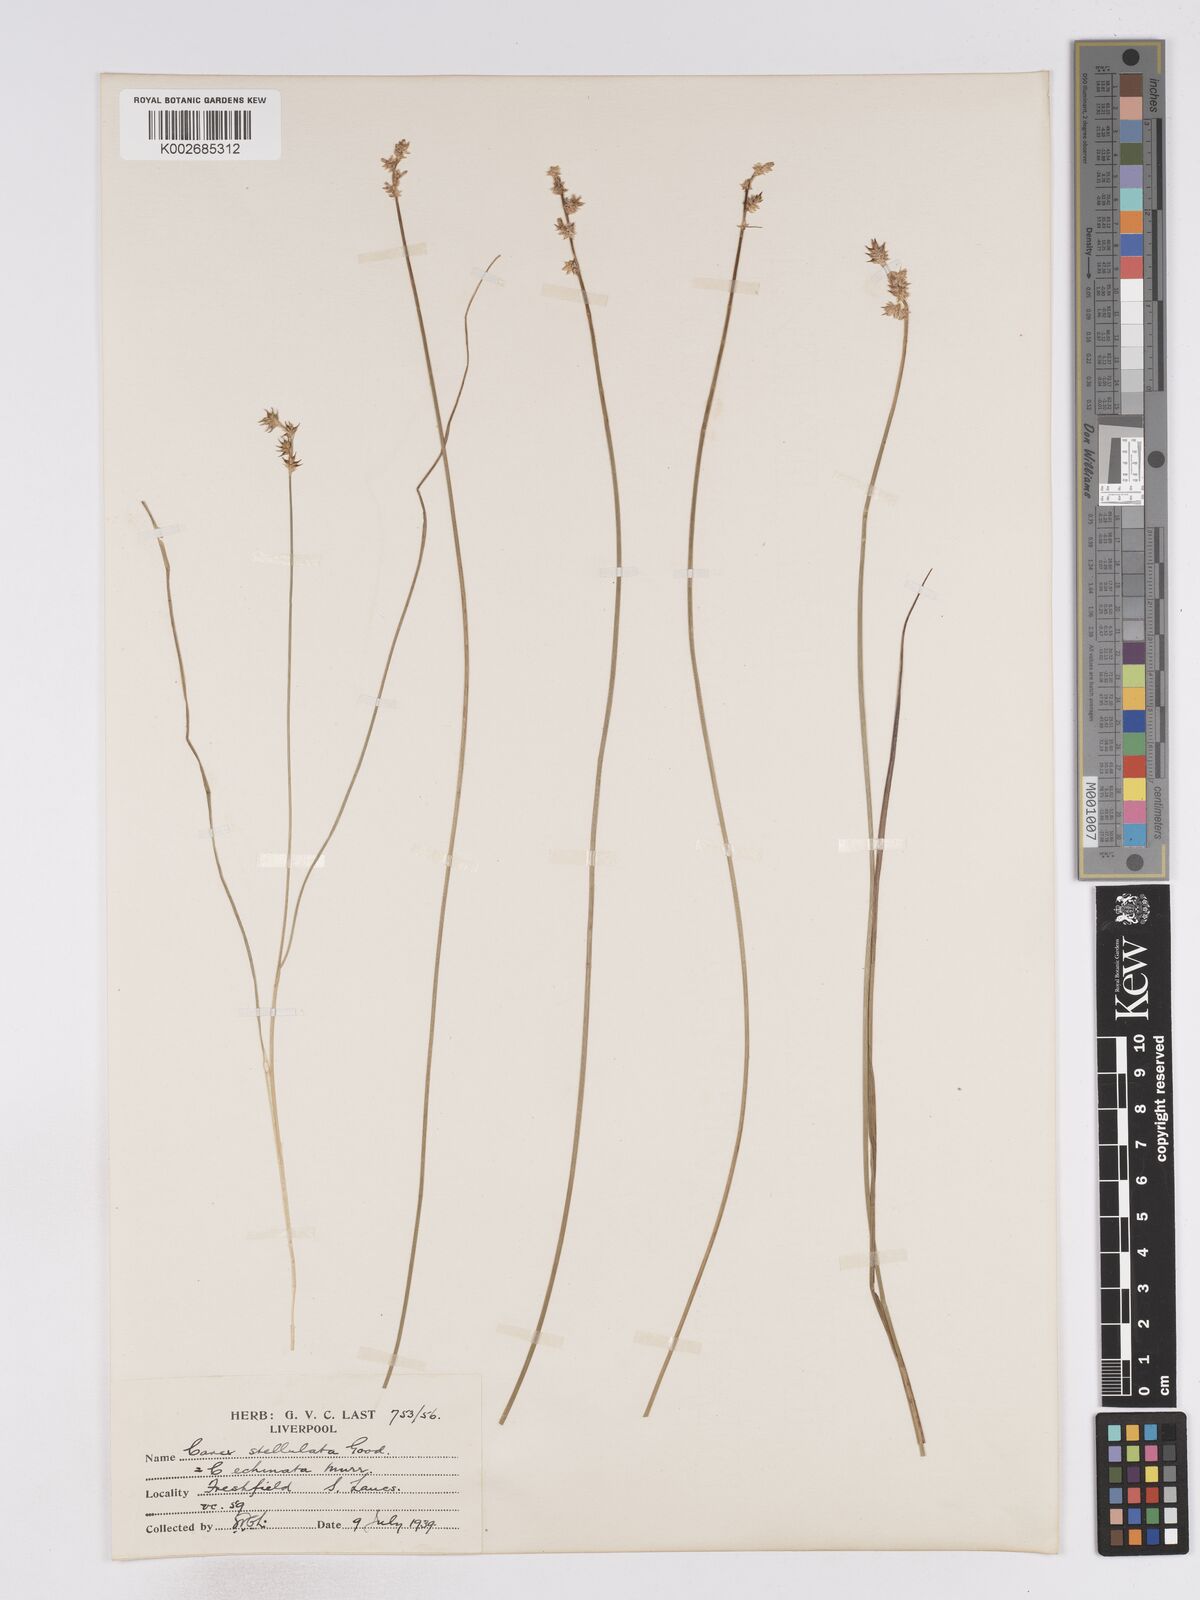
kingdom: Plantae
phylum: Tracheophyta
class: Liliopsida
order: Poales
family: Cyperaceae
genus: Carex
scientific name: Carex echinata
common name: Star sedge
